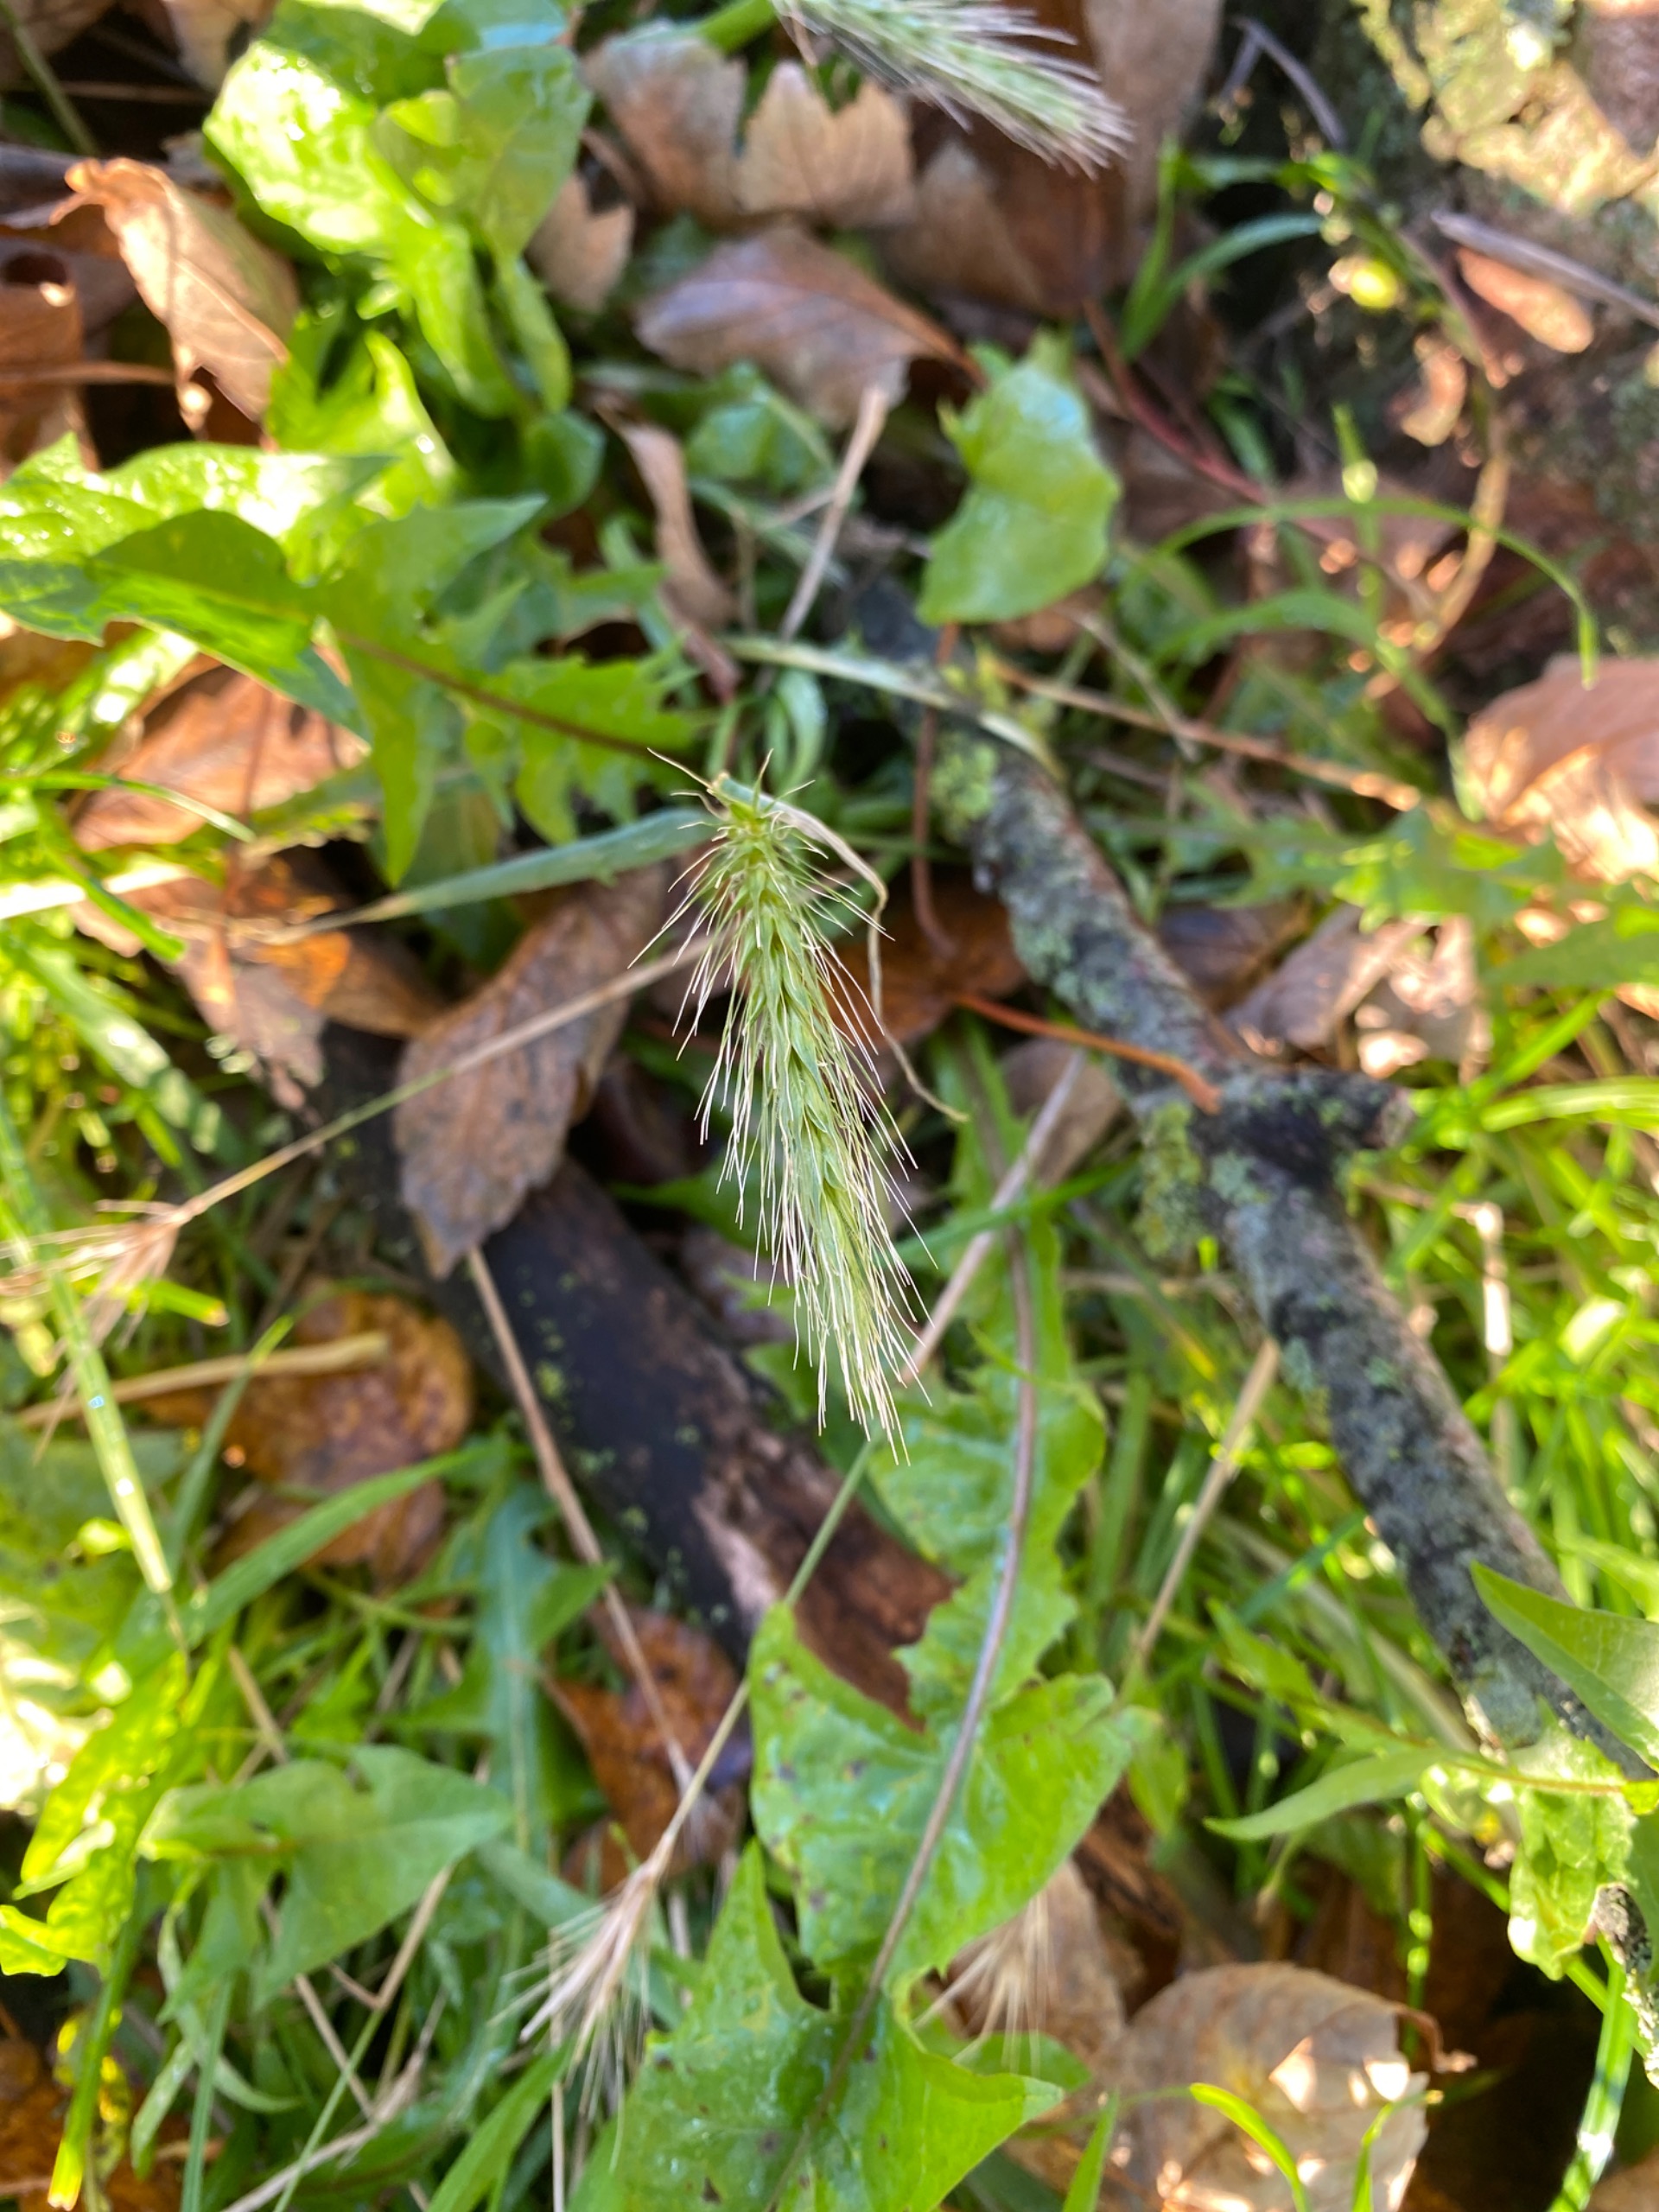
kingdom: Plantae
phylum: Tracheophyta
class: Liliopsida
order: Poales
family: Poaceae
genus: Hordeum
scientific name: Hordeum murinum
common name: Gold byg
